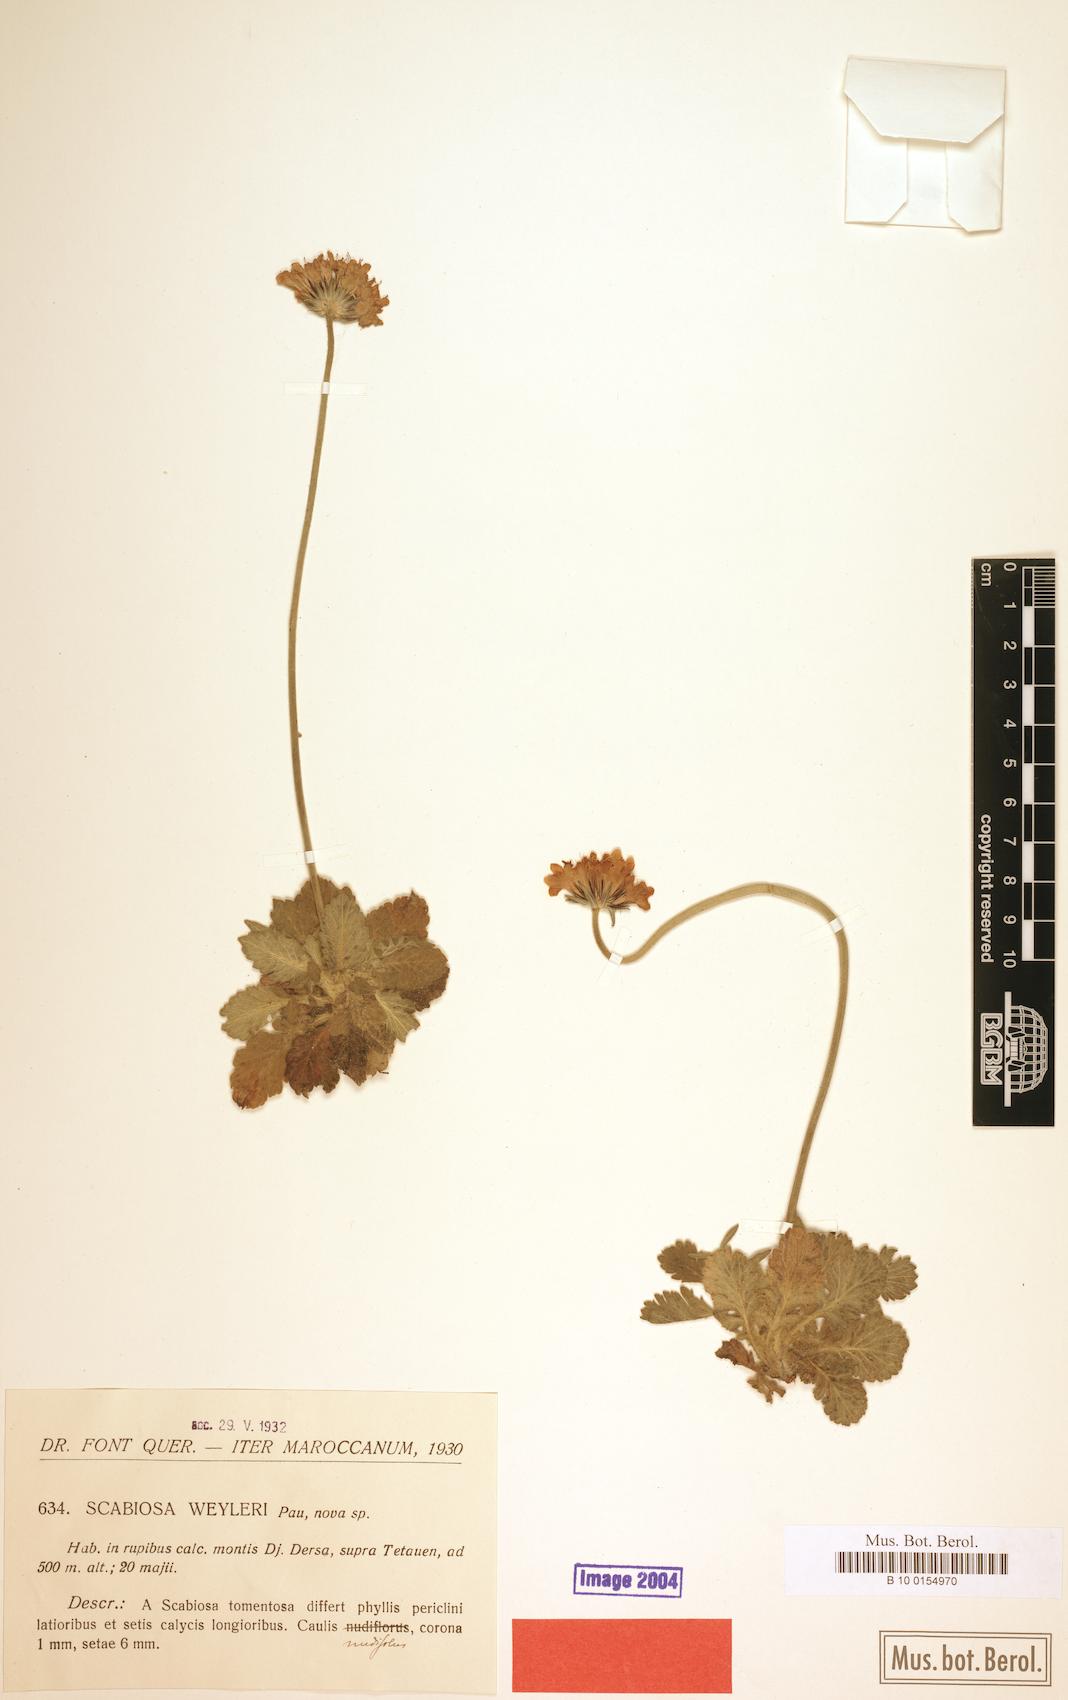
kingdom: Plantae
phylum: Tracheophyta
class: Magnoliopsida
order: Dipsacales
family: Caprifoliaceae
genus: Scabiosa
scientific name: Scabiosa turolensis
